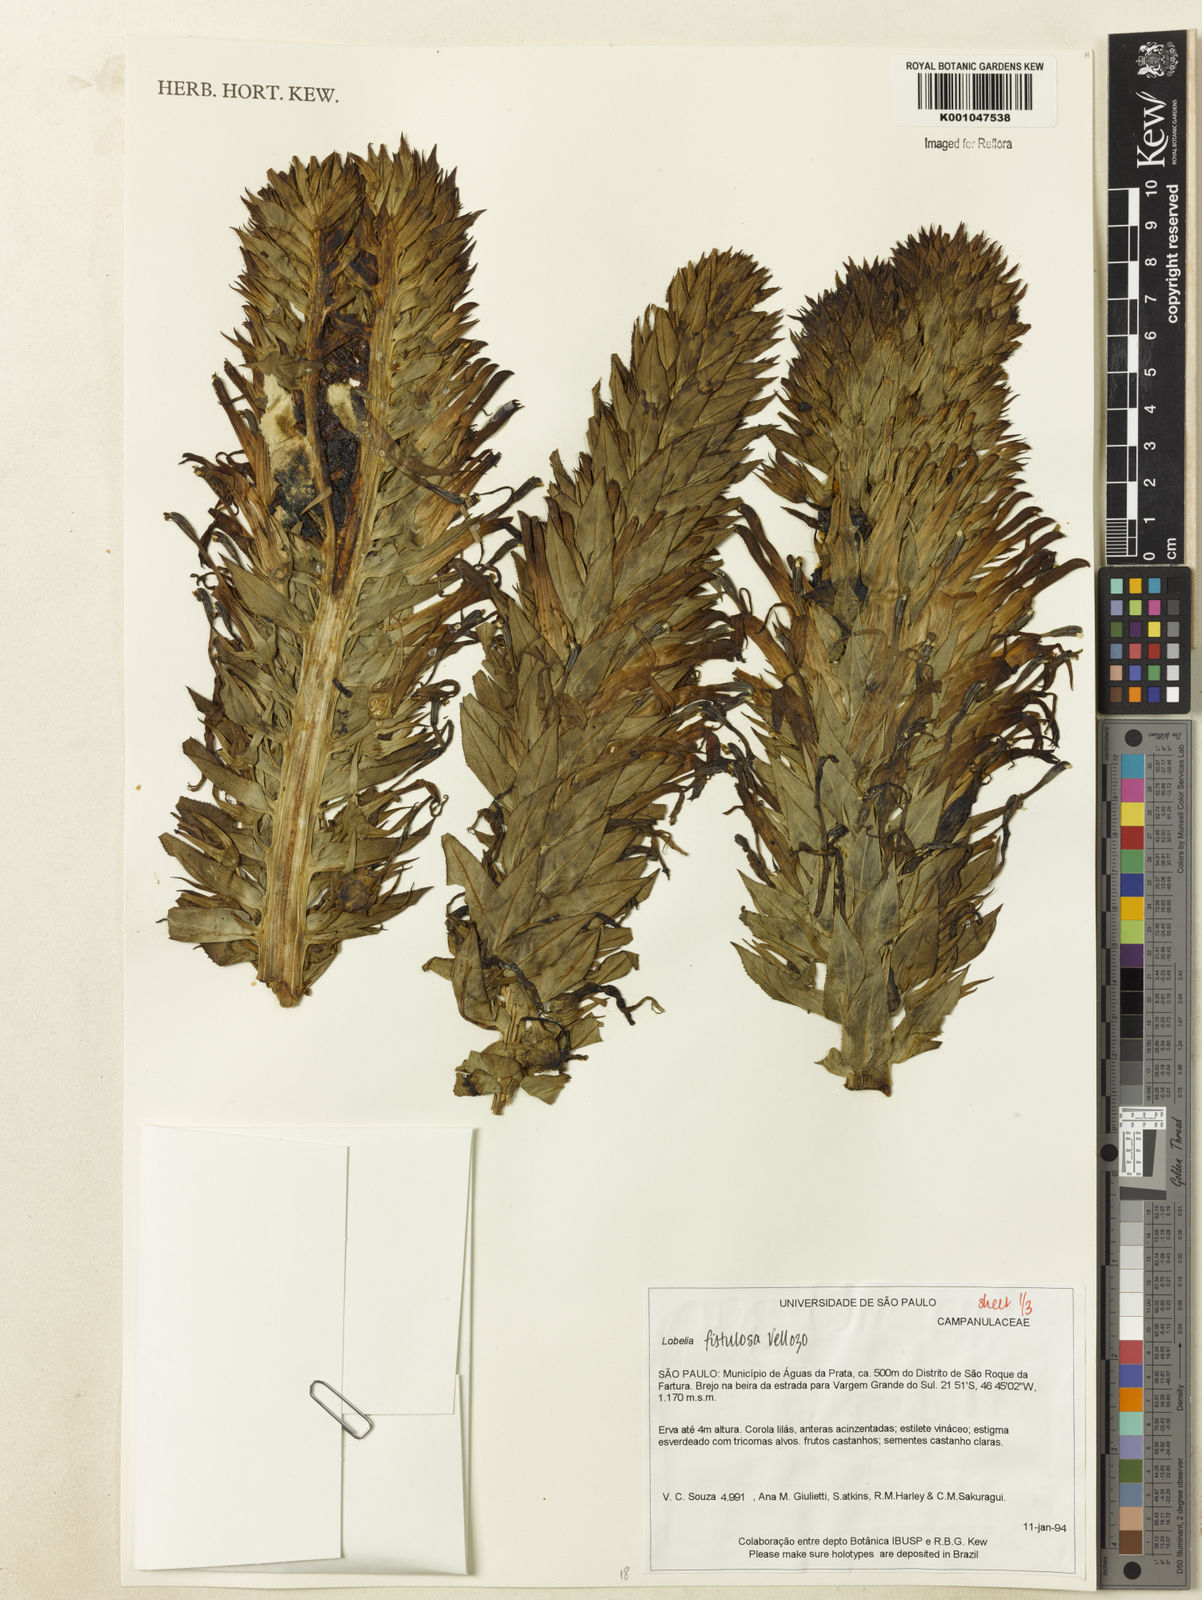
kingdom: Plantae
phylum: Tracheophyta
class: Magnoliopsida
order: Asterales
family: Campanulaceae
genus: Lobelia
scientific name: Lobelia fistulosa
